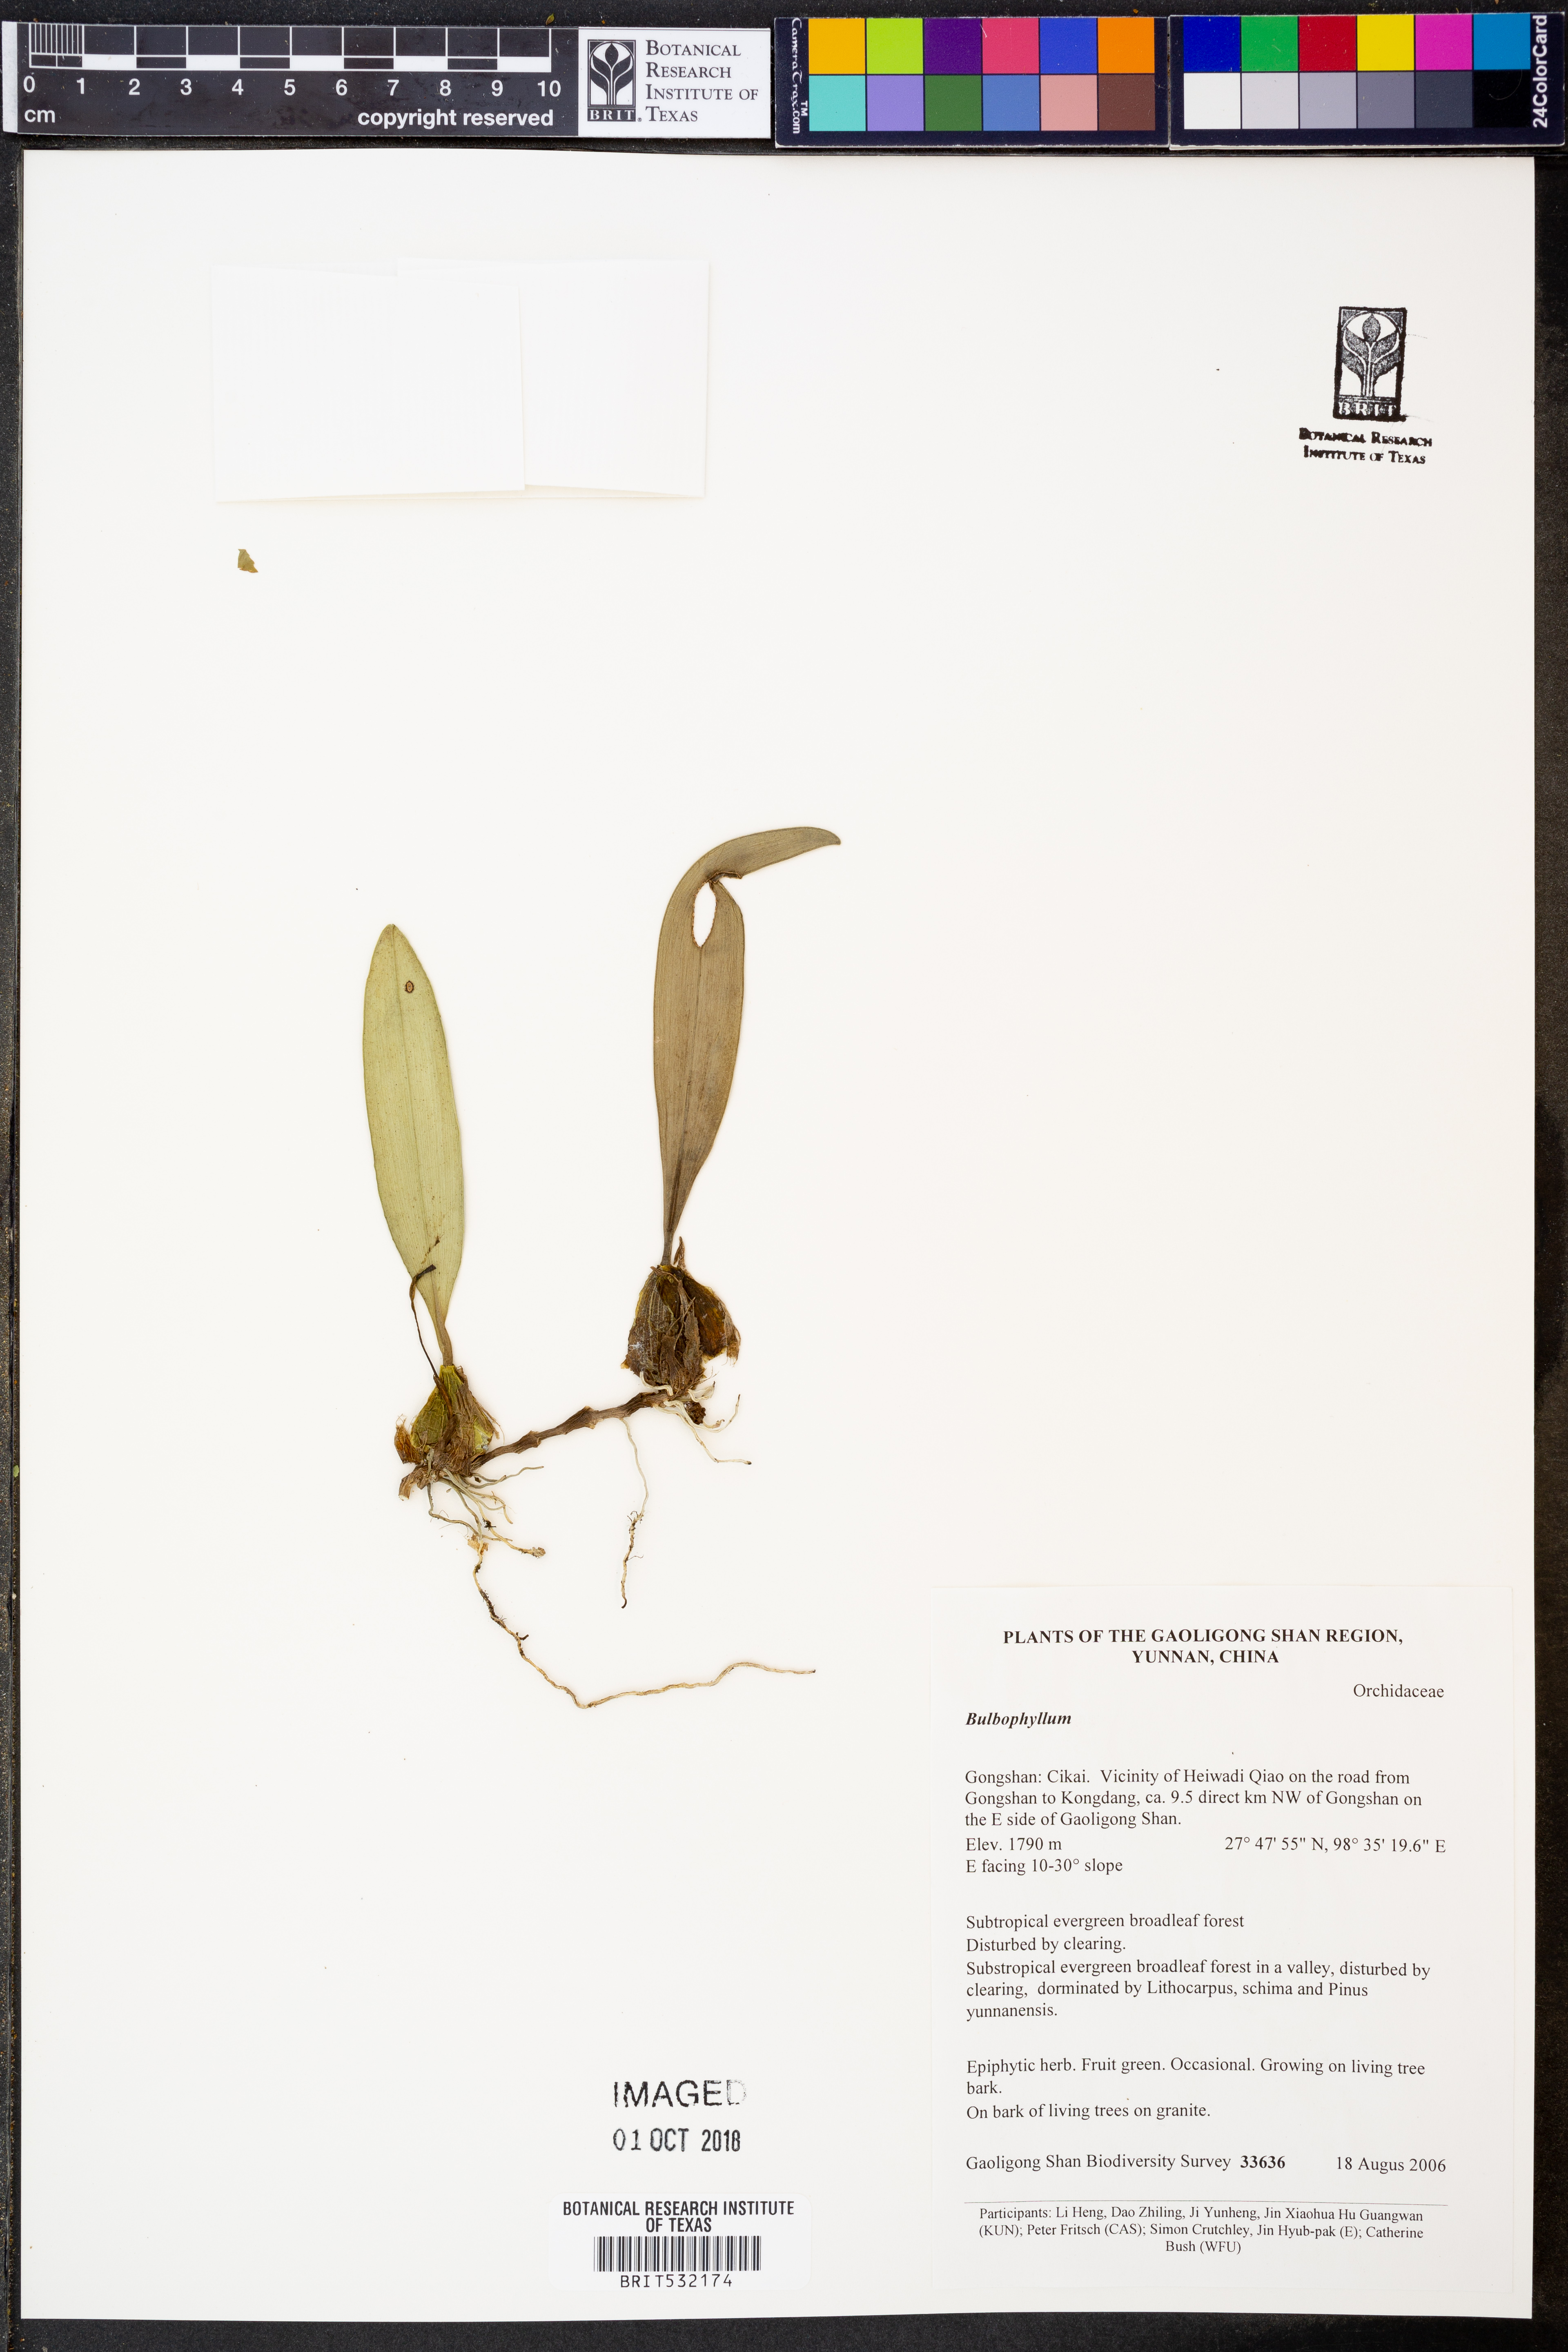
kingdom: Plantae
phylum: Tracheophyta
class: Liliopsida
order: Asparagales
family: Orchidaceae
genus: Bulbophyllum
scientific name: Bulbophyllum
